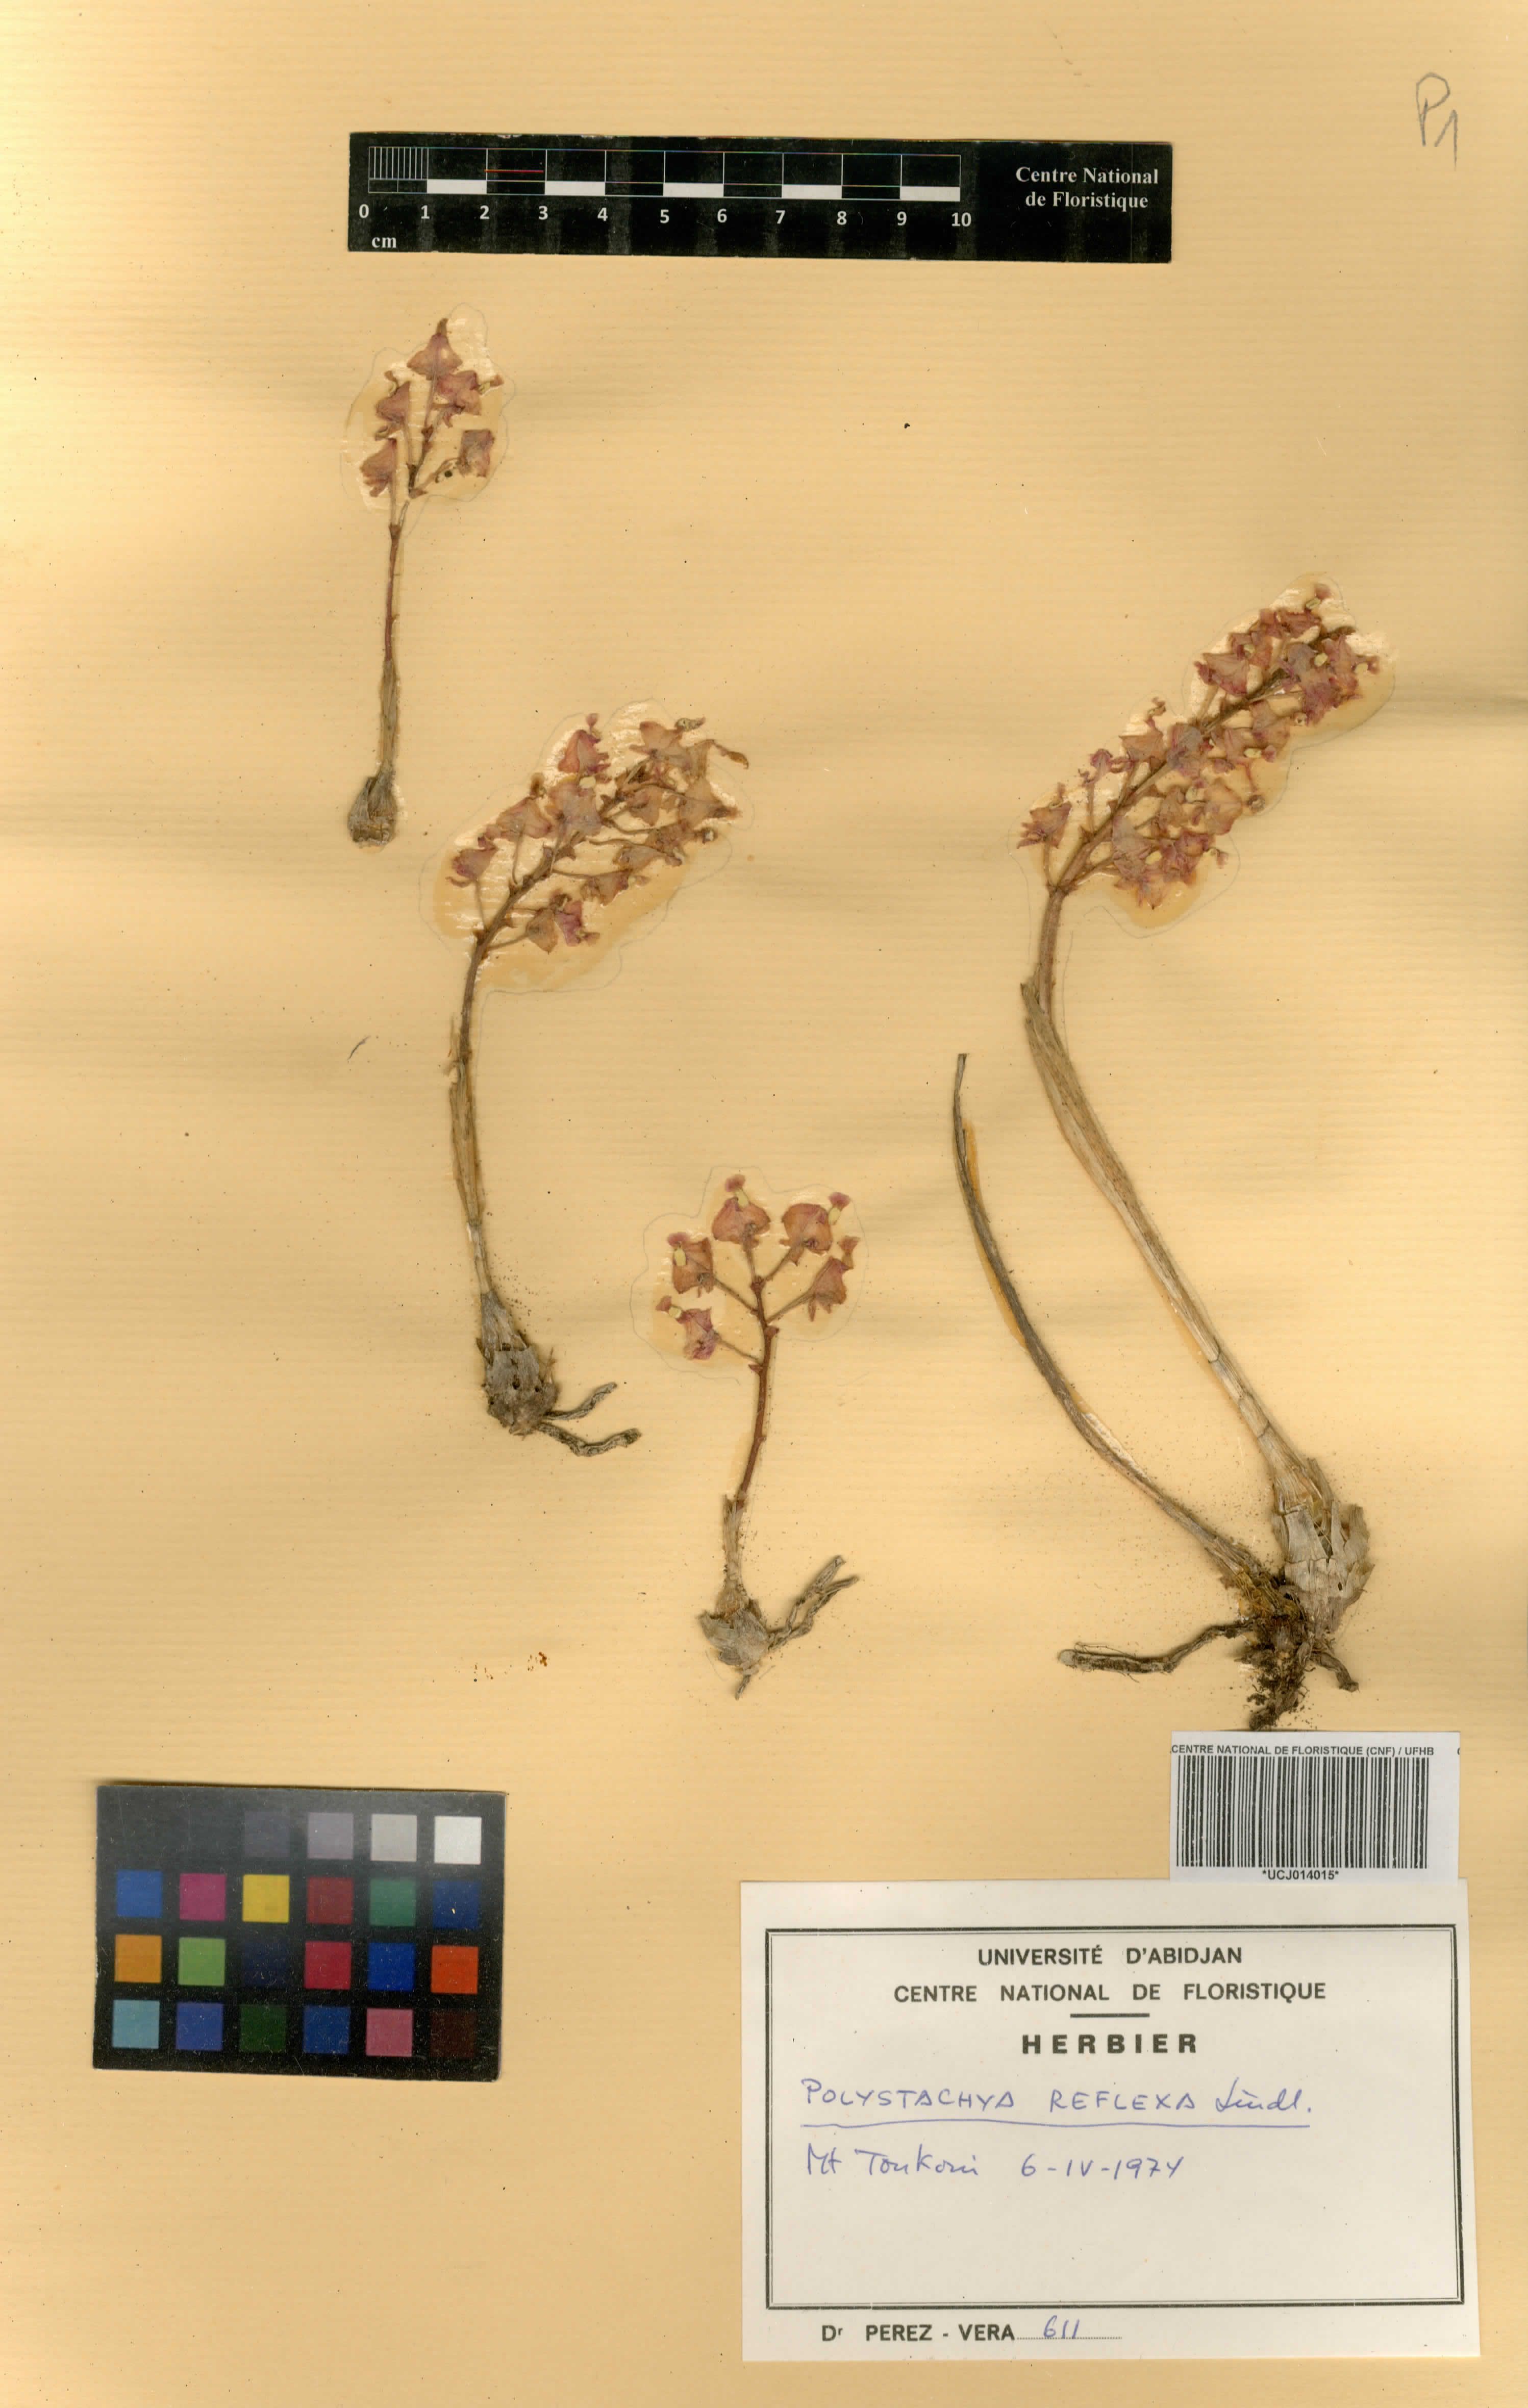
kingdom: Plantae
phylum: Tracheophyta
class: Liliopsida
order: Asparagales
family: Orchidaceae
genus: Polystachya
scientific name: Polystachya reflexa
